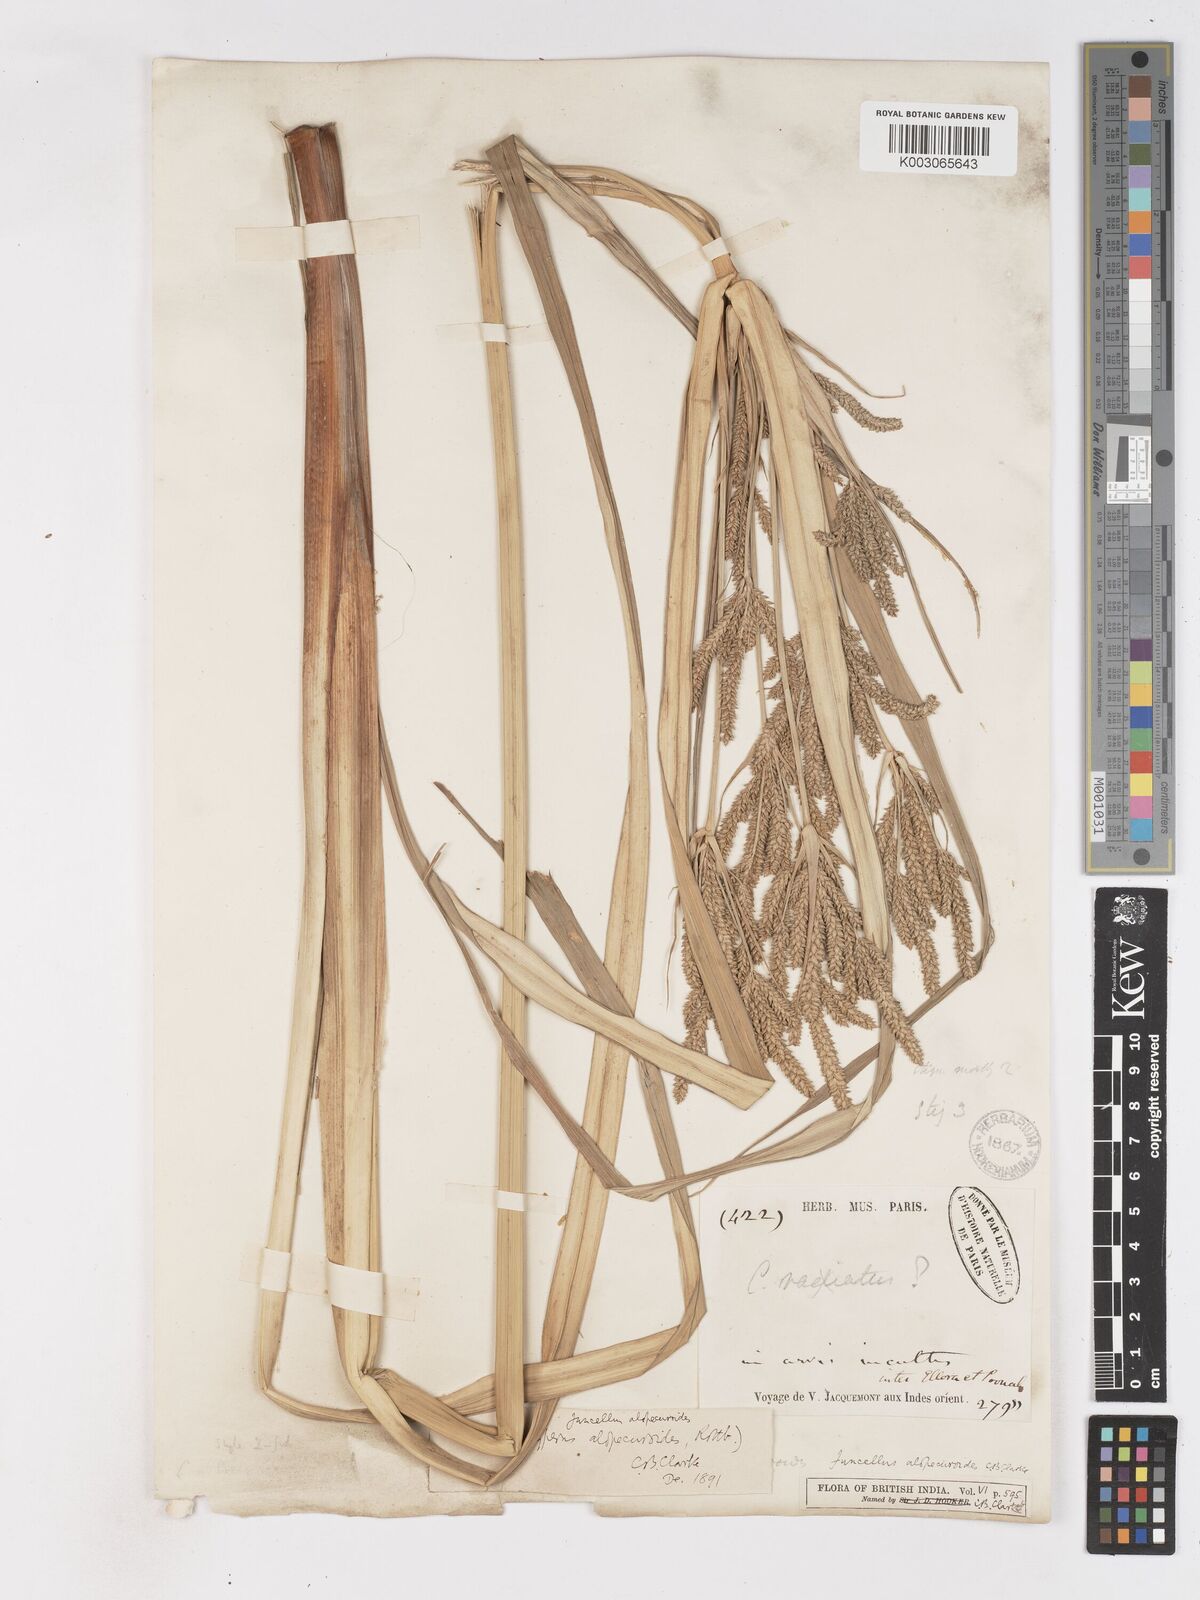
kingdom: Plantae
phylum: Tracheophyta
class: Liliopsida
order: Poales
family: Cyperaceae
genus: Cyperus
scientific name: Cyperus alopecuroides
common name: Foxtail flatsedge
